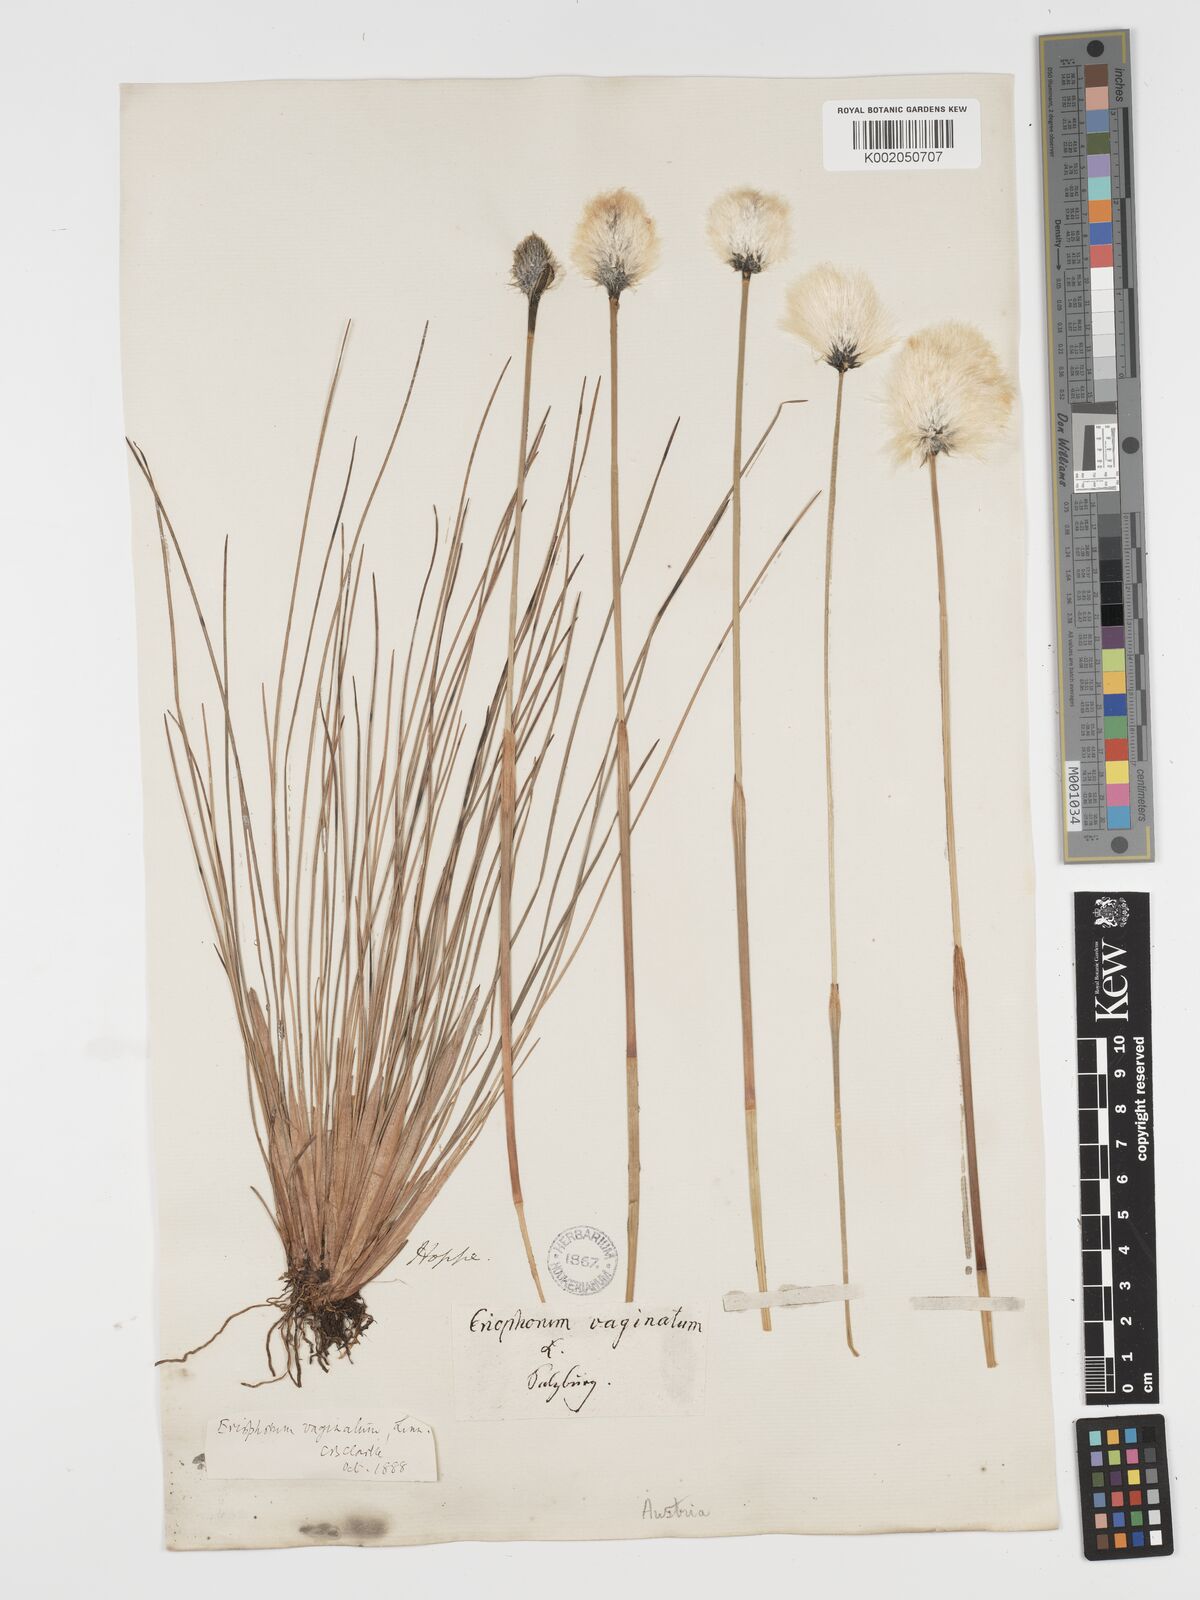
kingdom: Plantae
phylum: Tracheophyta
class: Liliopsida
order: Poales
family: Cyperaceae
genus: Eriophorum
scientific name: Eriophorum vaginatum
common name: Hare's-tail cottongrass
